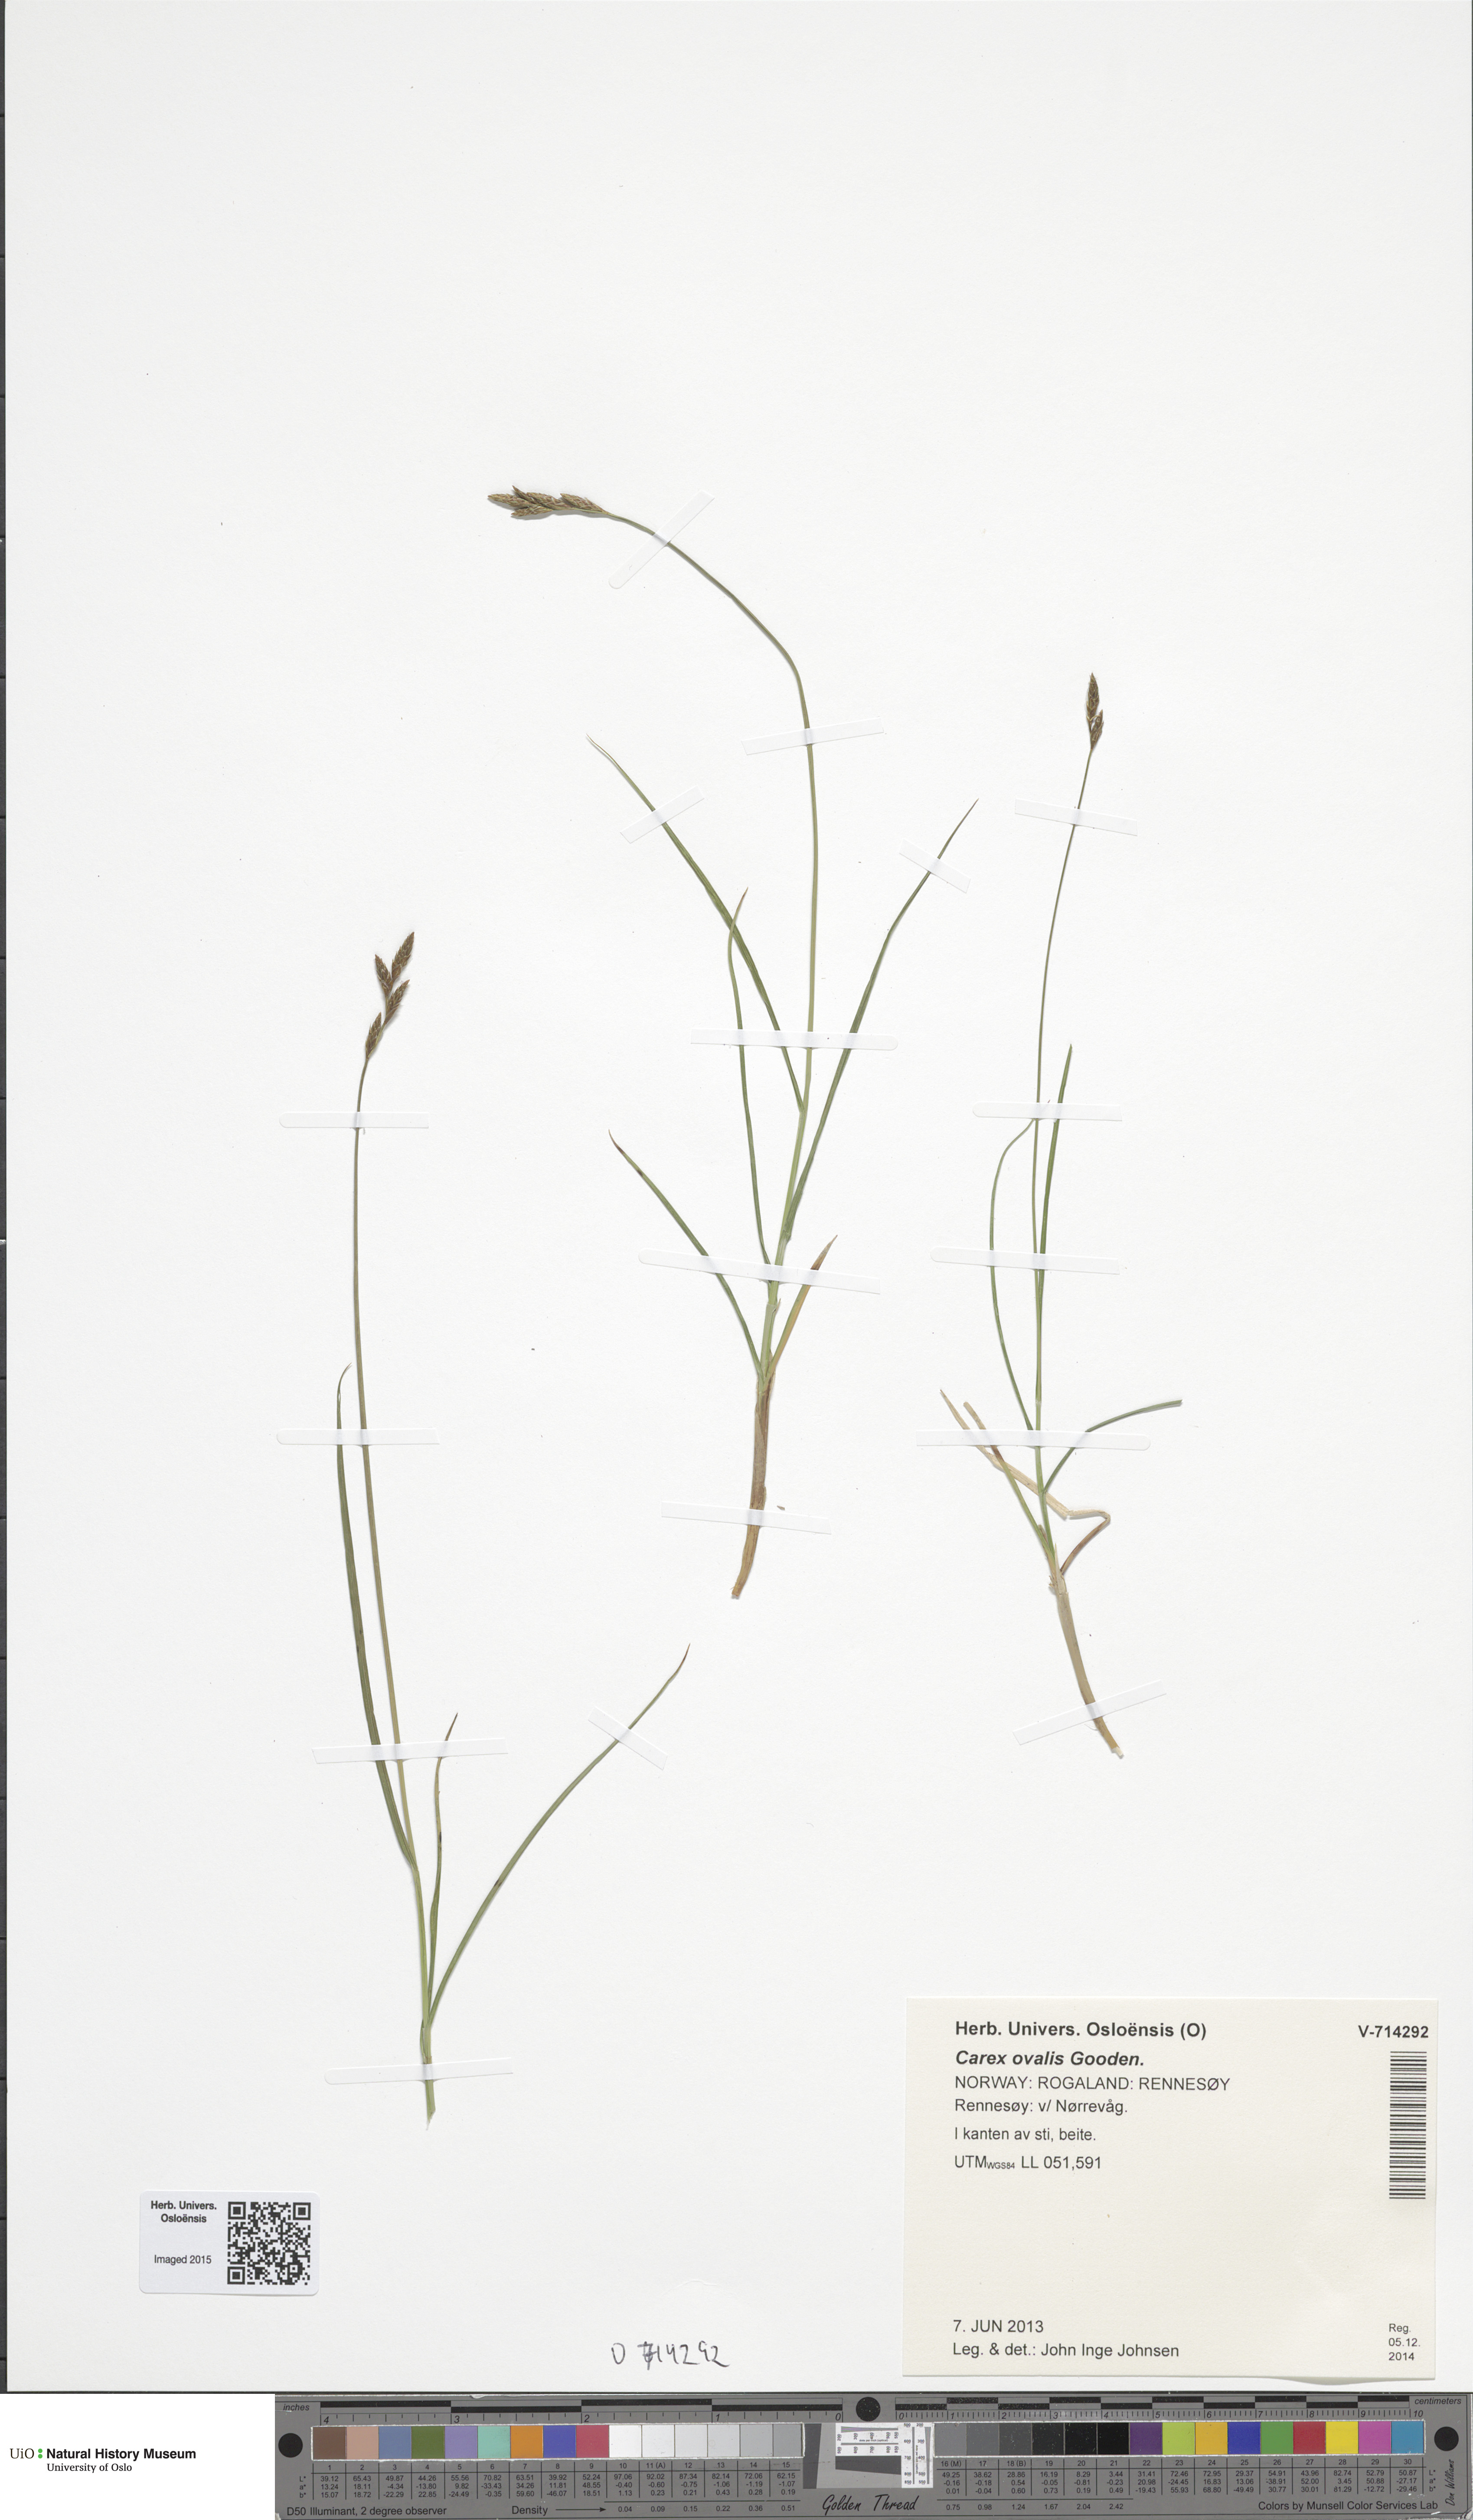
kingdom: Plantae
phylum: Tracheophyta
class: Liliopsida
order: Poales
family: Cyperaceae
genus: Carex
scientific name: Carex leporina
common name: Oval sedge
